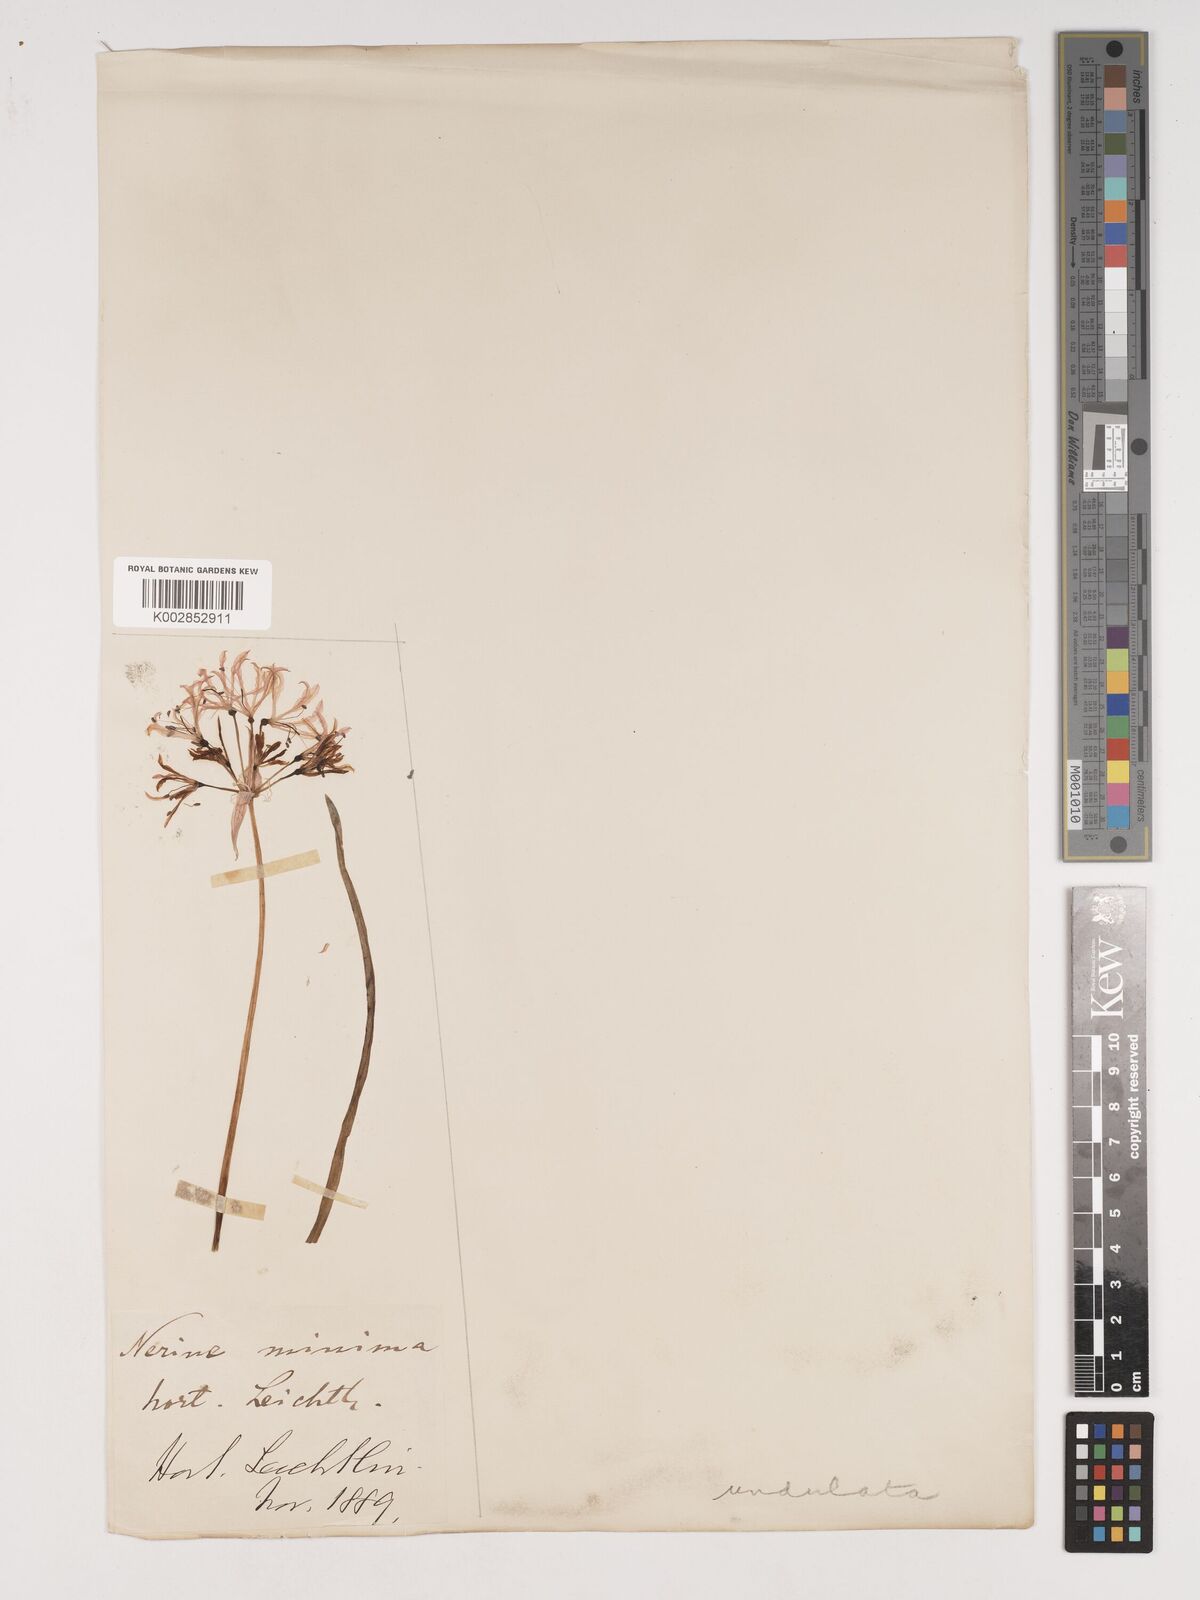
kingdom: Plantae
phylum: Tracheophyta
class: Liliopsida
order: Asparagales
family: Amaryllidaceae
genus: Nerine
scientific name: Nerine undulata
